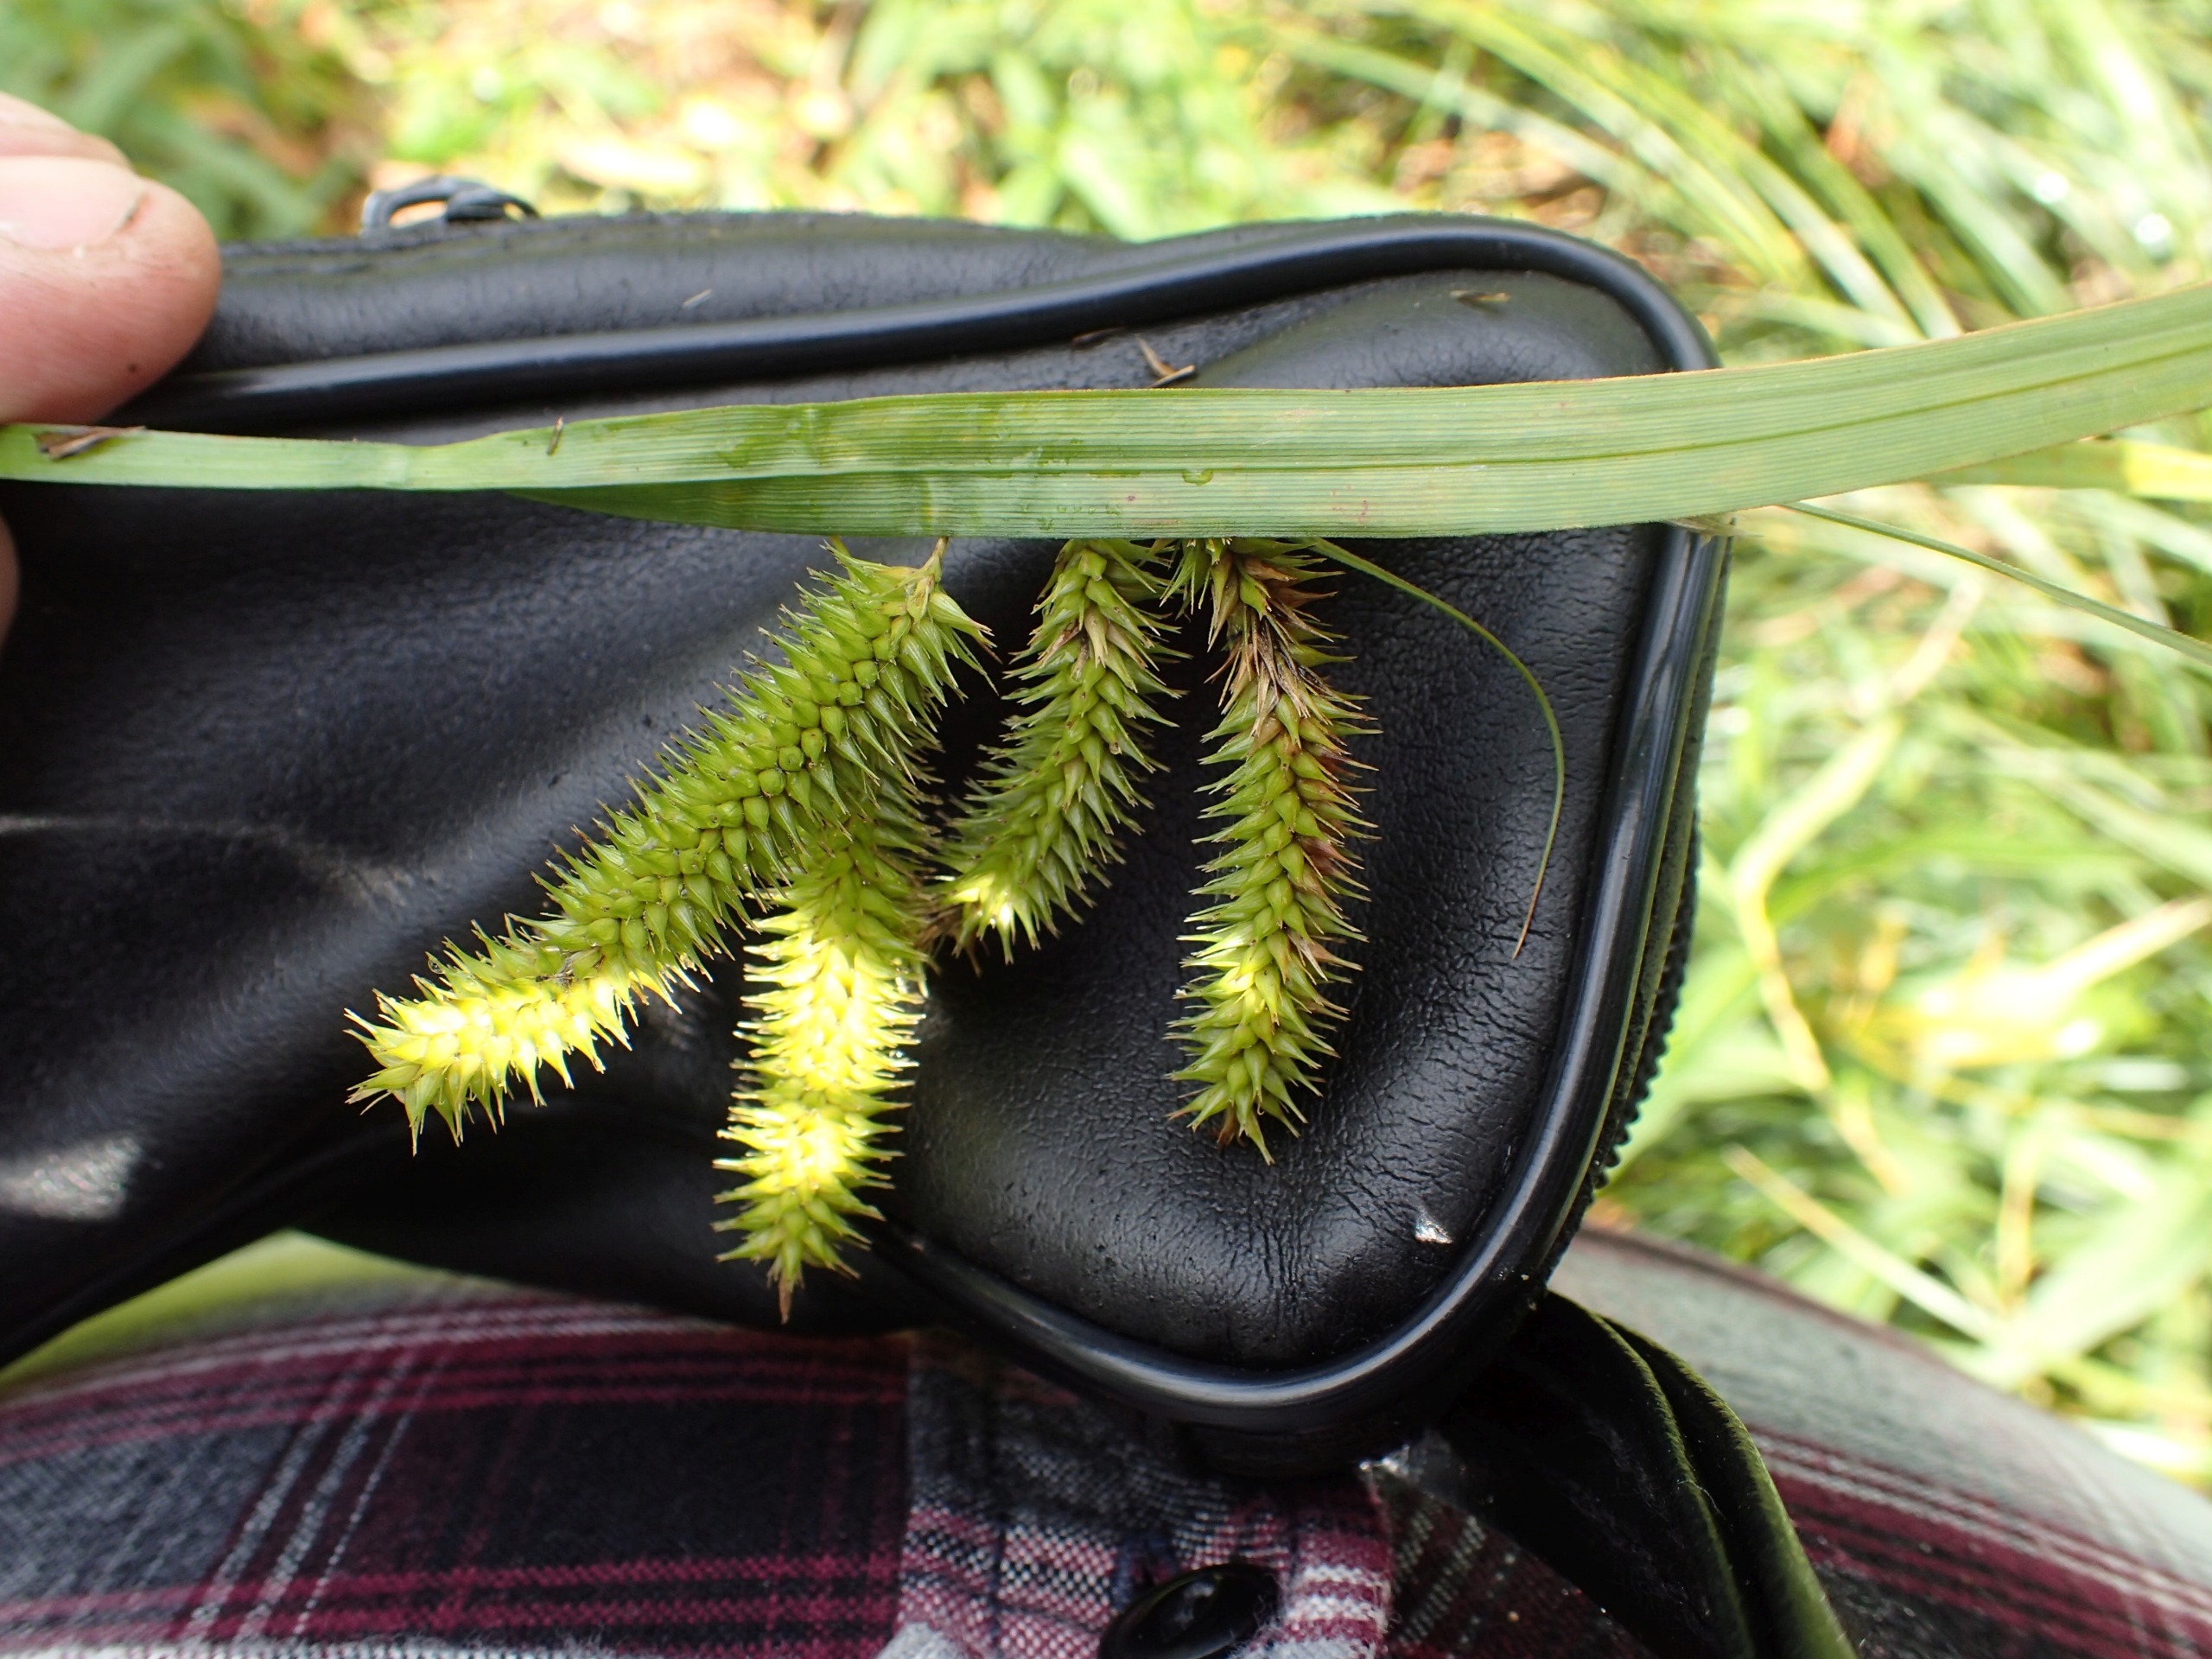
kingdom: Plantae
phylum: Tracheophyta
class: Liliopsida
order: Poales
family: Cyperaceae
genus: Carex
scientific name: Carex pseudocyperus
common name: Knippe-star
